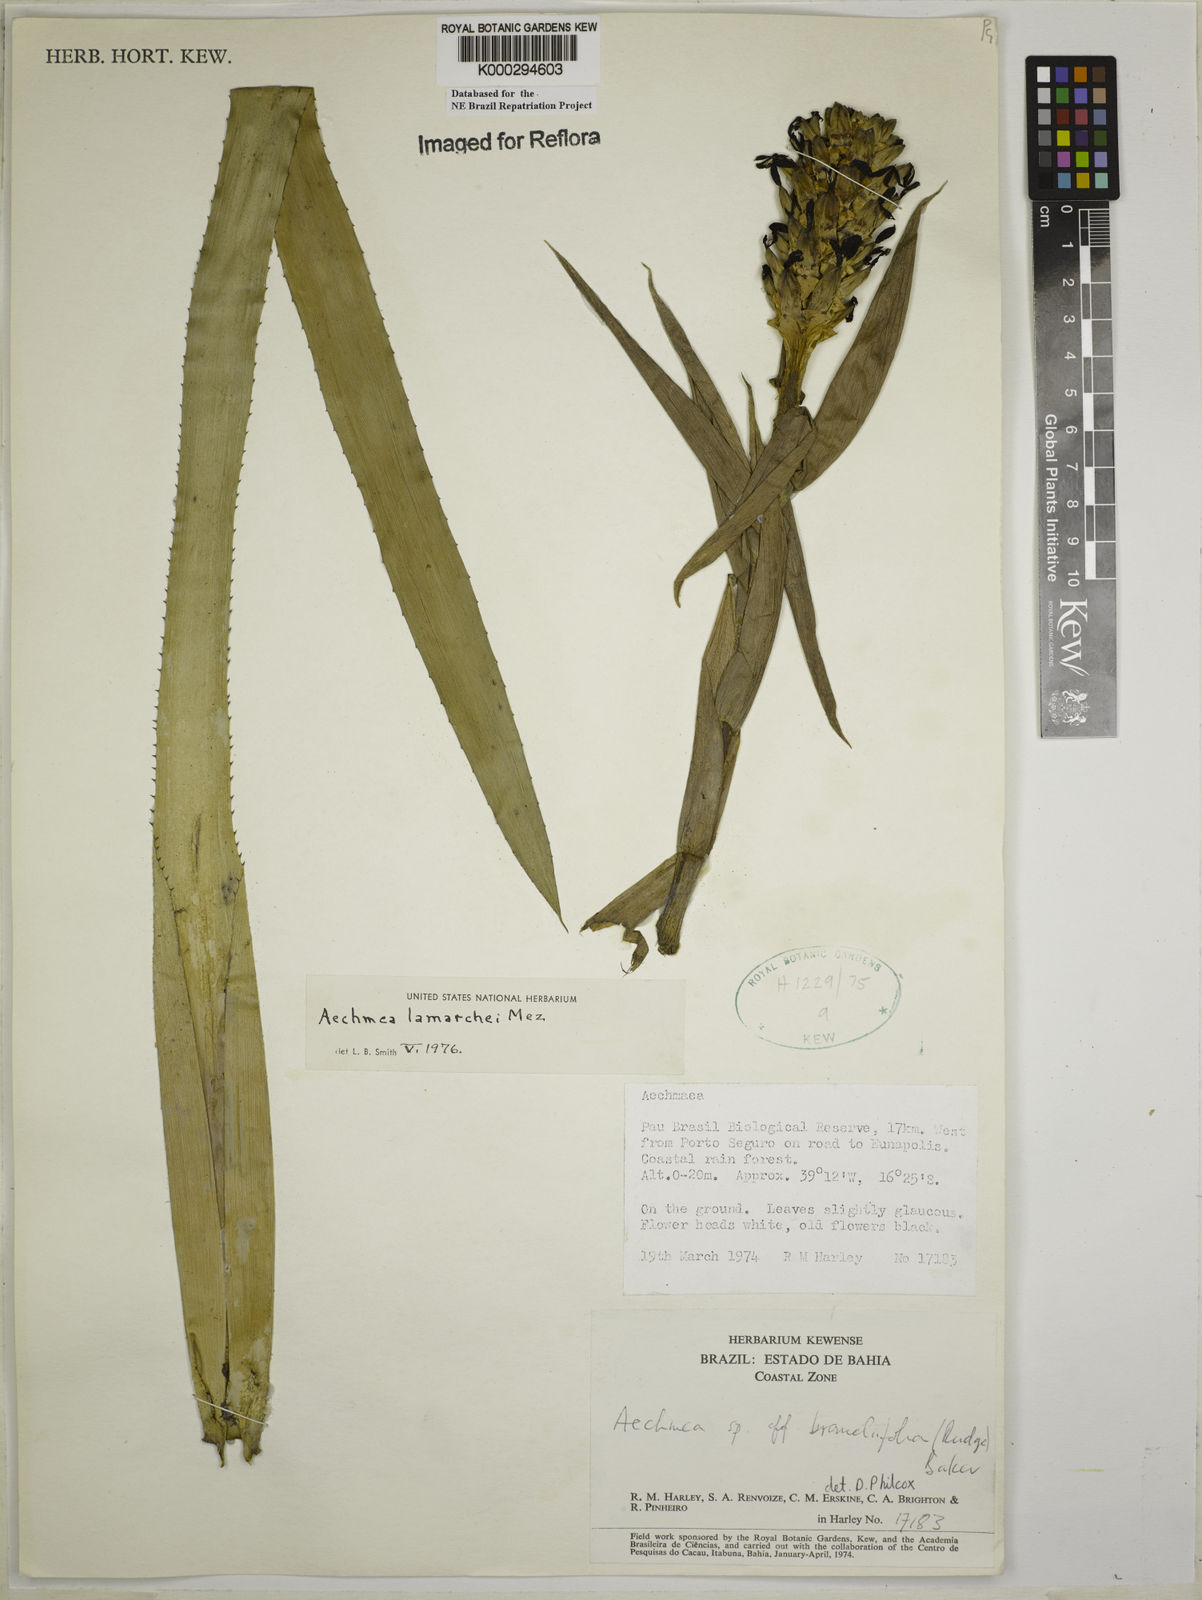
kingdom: Plantae
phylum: Tracheophyta
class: Liliopsida
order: Poales
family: Bromeliaceae
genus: Aechmea
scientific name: Aechmea lamarchei
